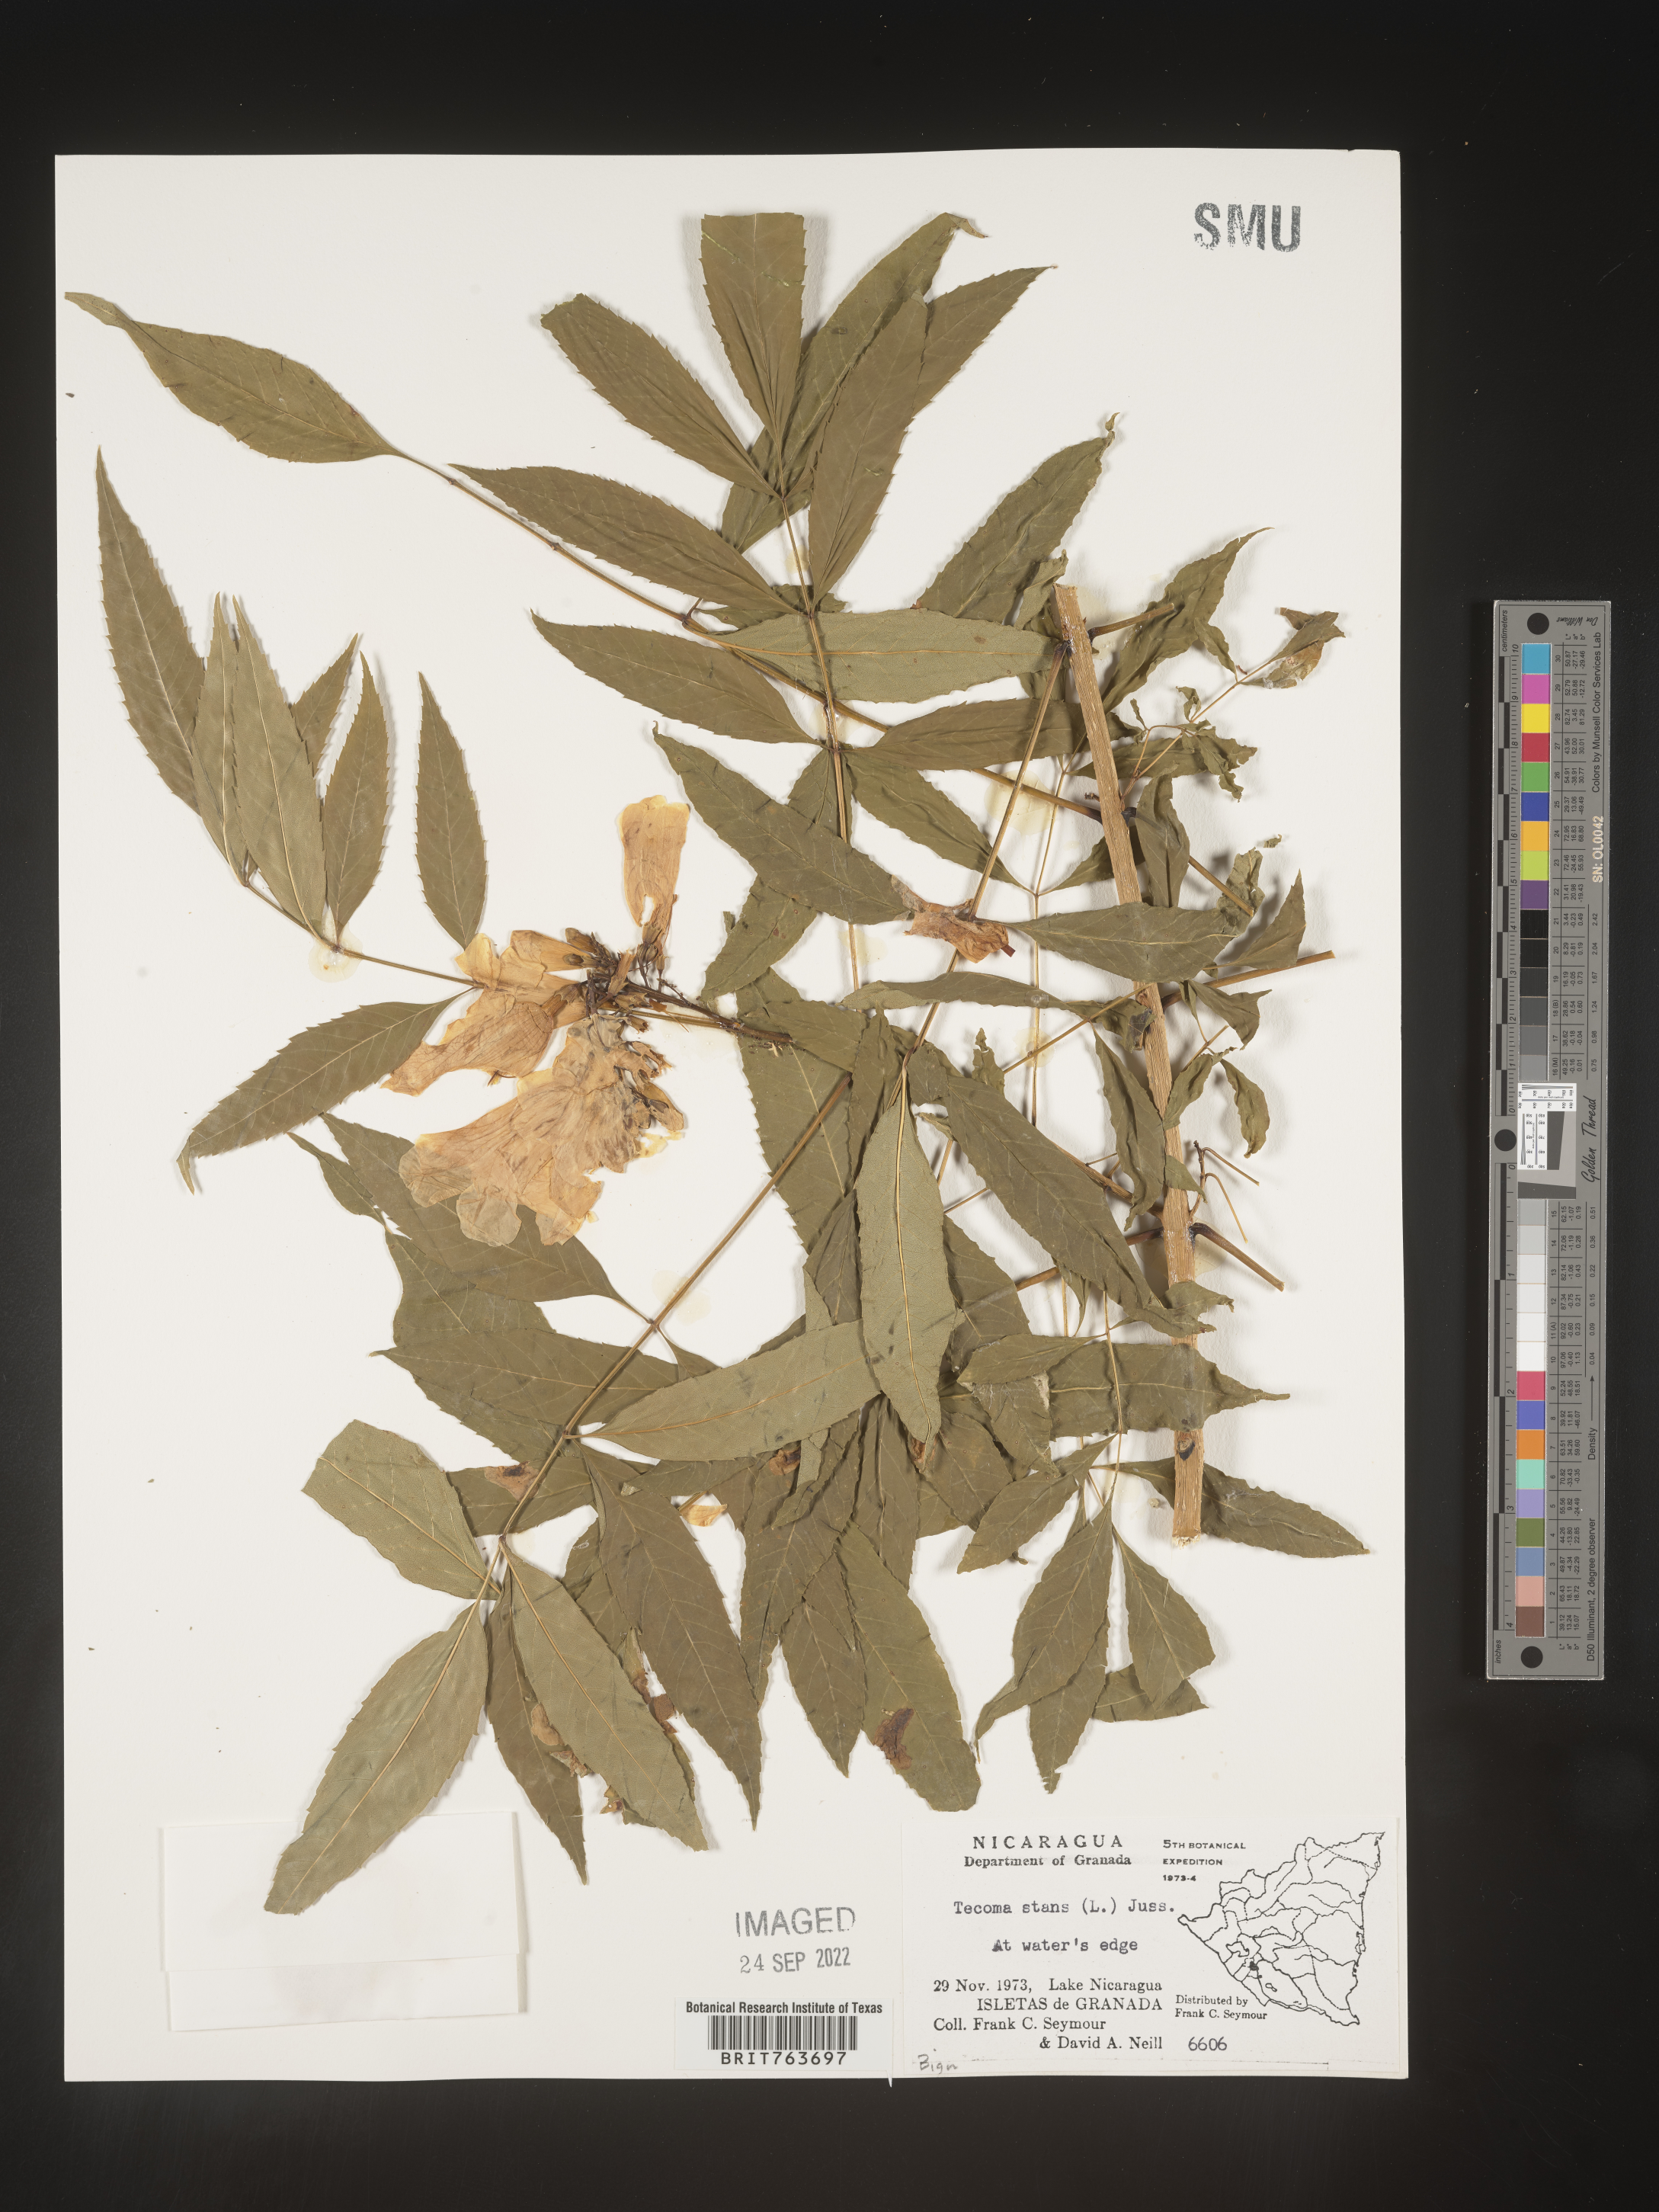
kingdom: Plantae
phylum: Tracheophyta
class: Magnoliopsida
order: Lamiales
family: Bignoniaceae
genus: Tecoma
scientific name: Tecoma
